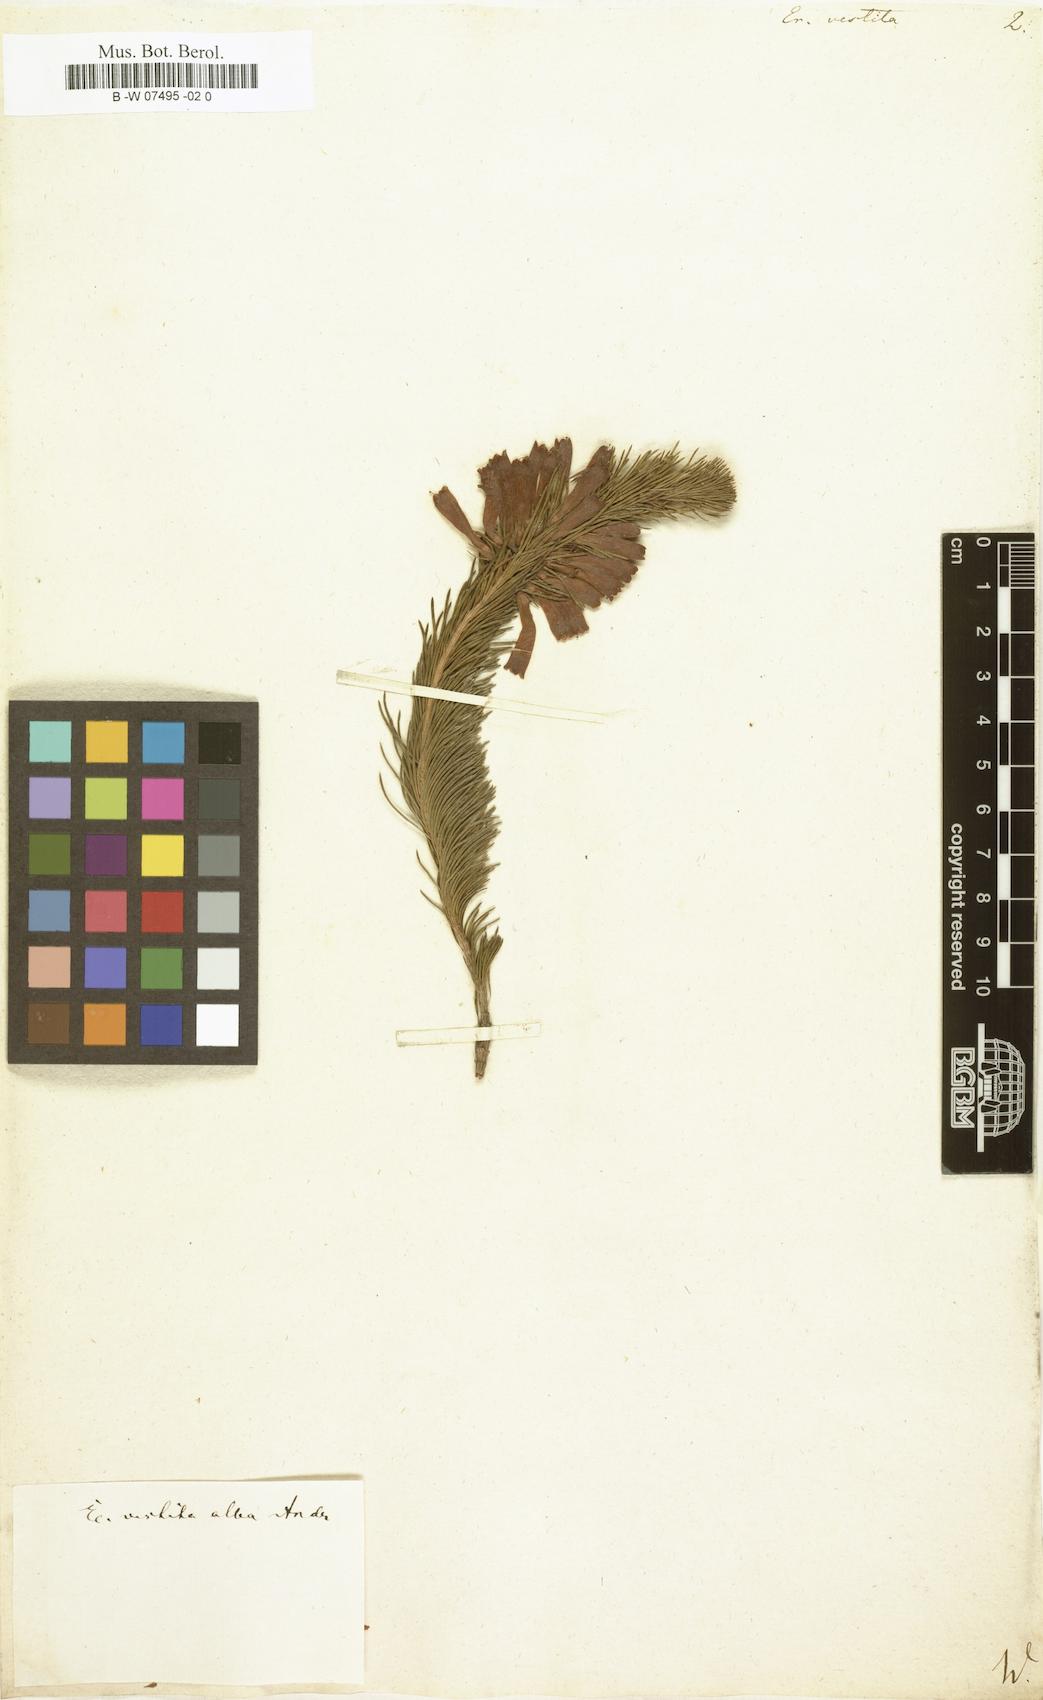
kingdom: Plantae
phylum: Tracheophyta
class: Magnoliopsida
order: Ericales
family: Ericaceae
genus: Erica
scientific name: Erica vestita
